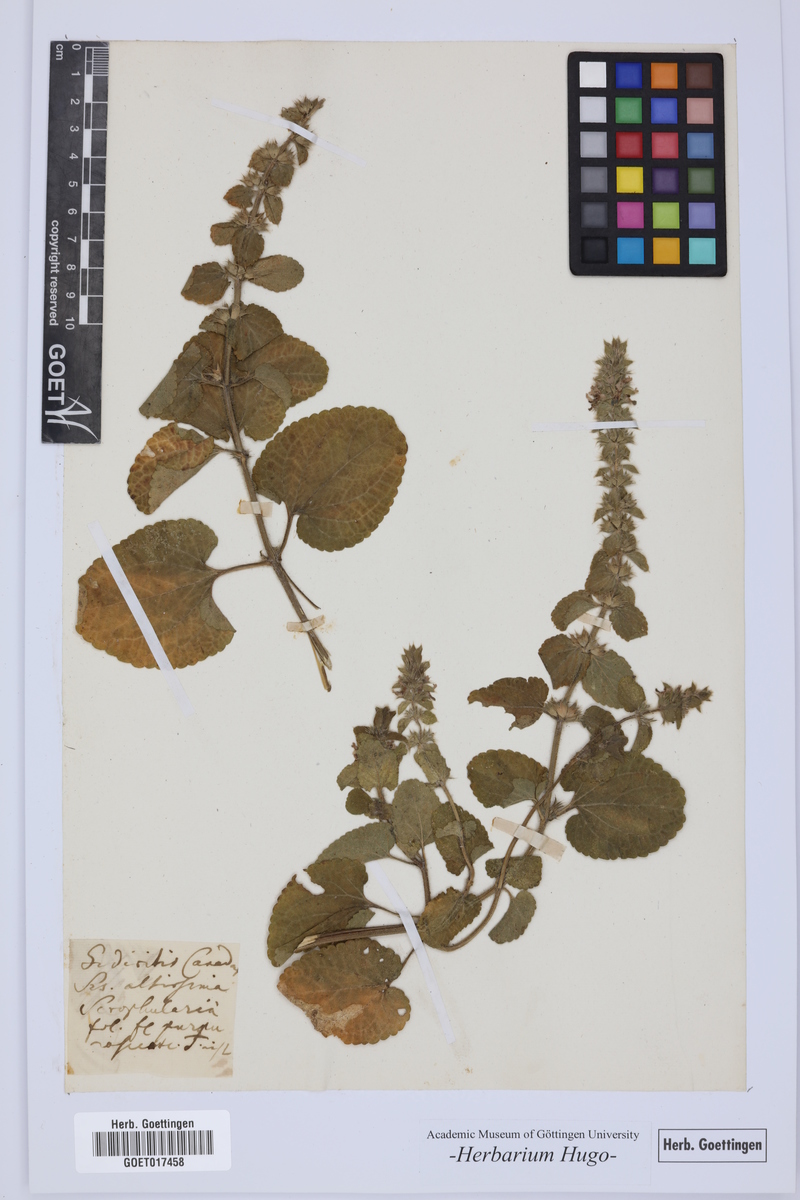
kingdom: Plantae
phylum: Tracheophyta
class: Magnoliopsida
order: Lamiales
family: Lamiaceae
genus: Sideritis
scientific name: Sideritis
